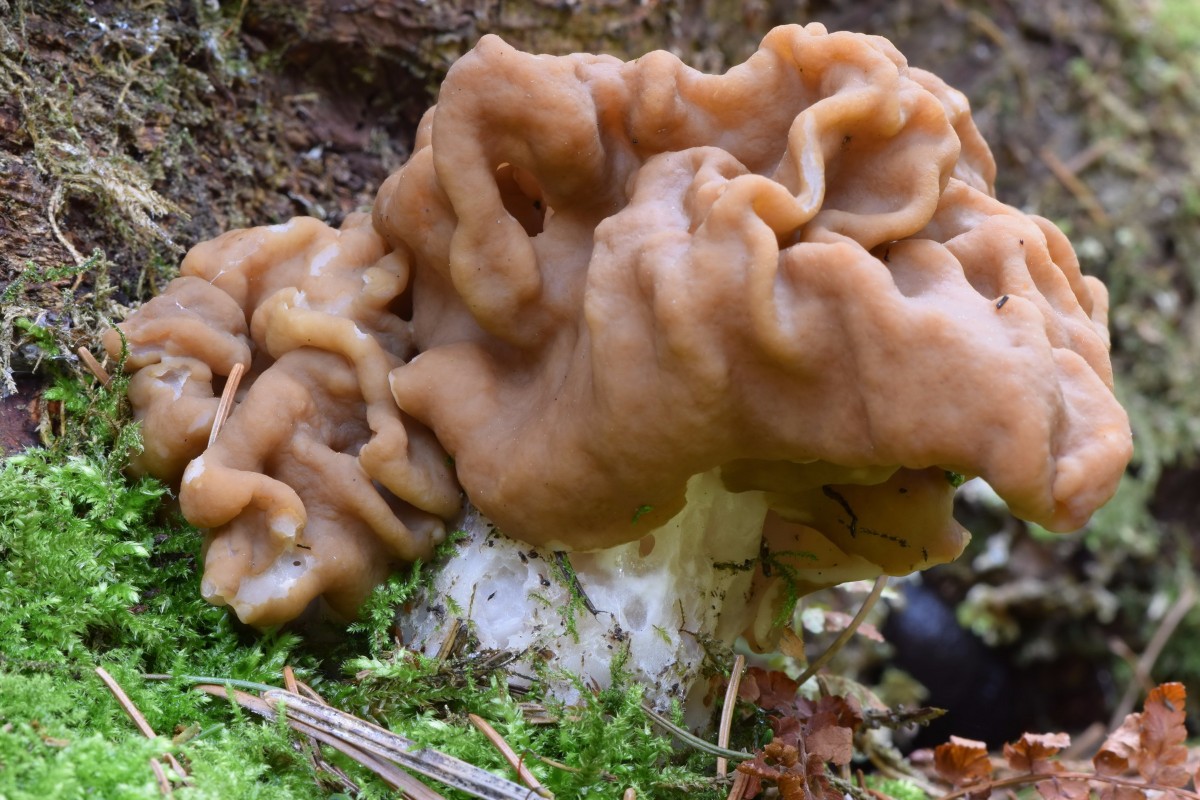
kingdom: Fungi
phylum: Ascomycota
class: Pezizomycetes
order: Pezizales
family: Discinaceae
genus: Gyromitra
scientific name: Gyromitra gigas
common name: kæmpe-stenmorkel
